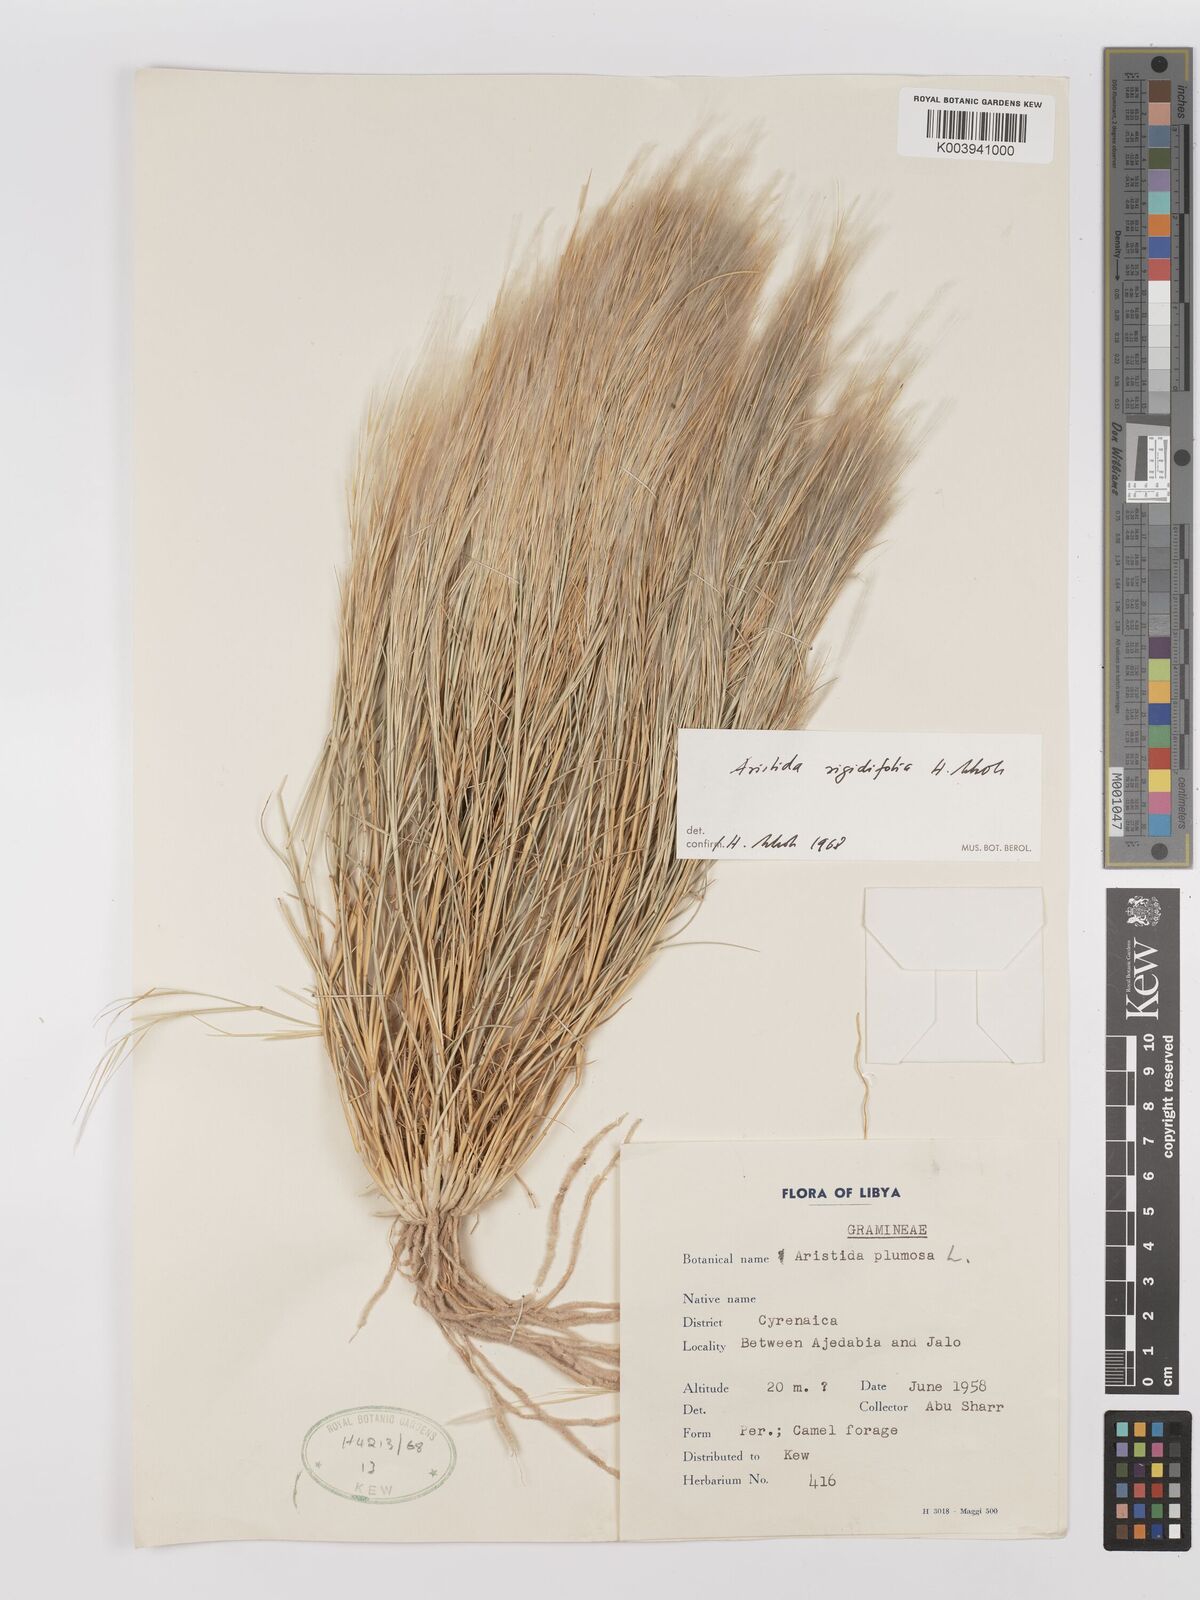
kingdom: Plantae
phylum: Tracheophyta
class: Liliopsida
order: Poales
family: Poaceae
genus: Stipagrostis
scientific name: Stipagrostis rigidifolia
